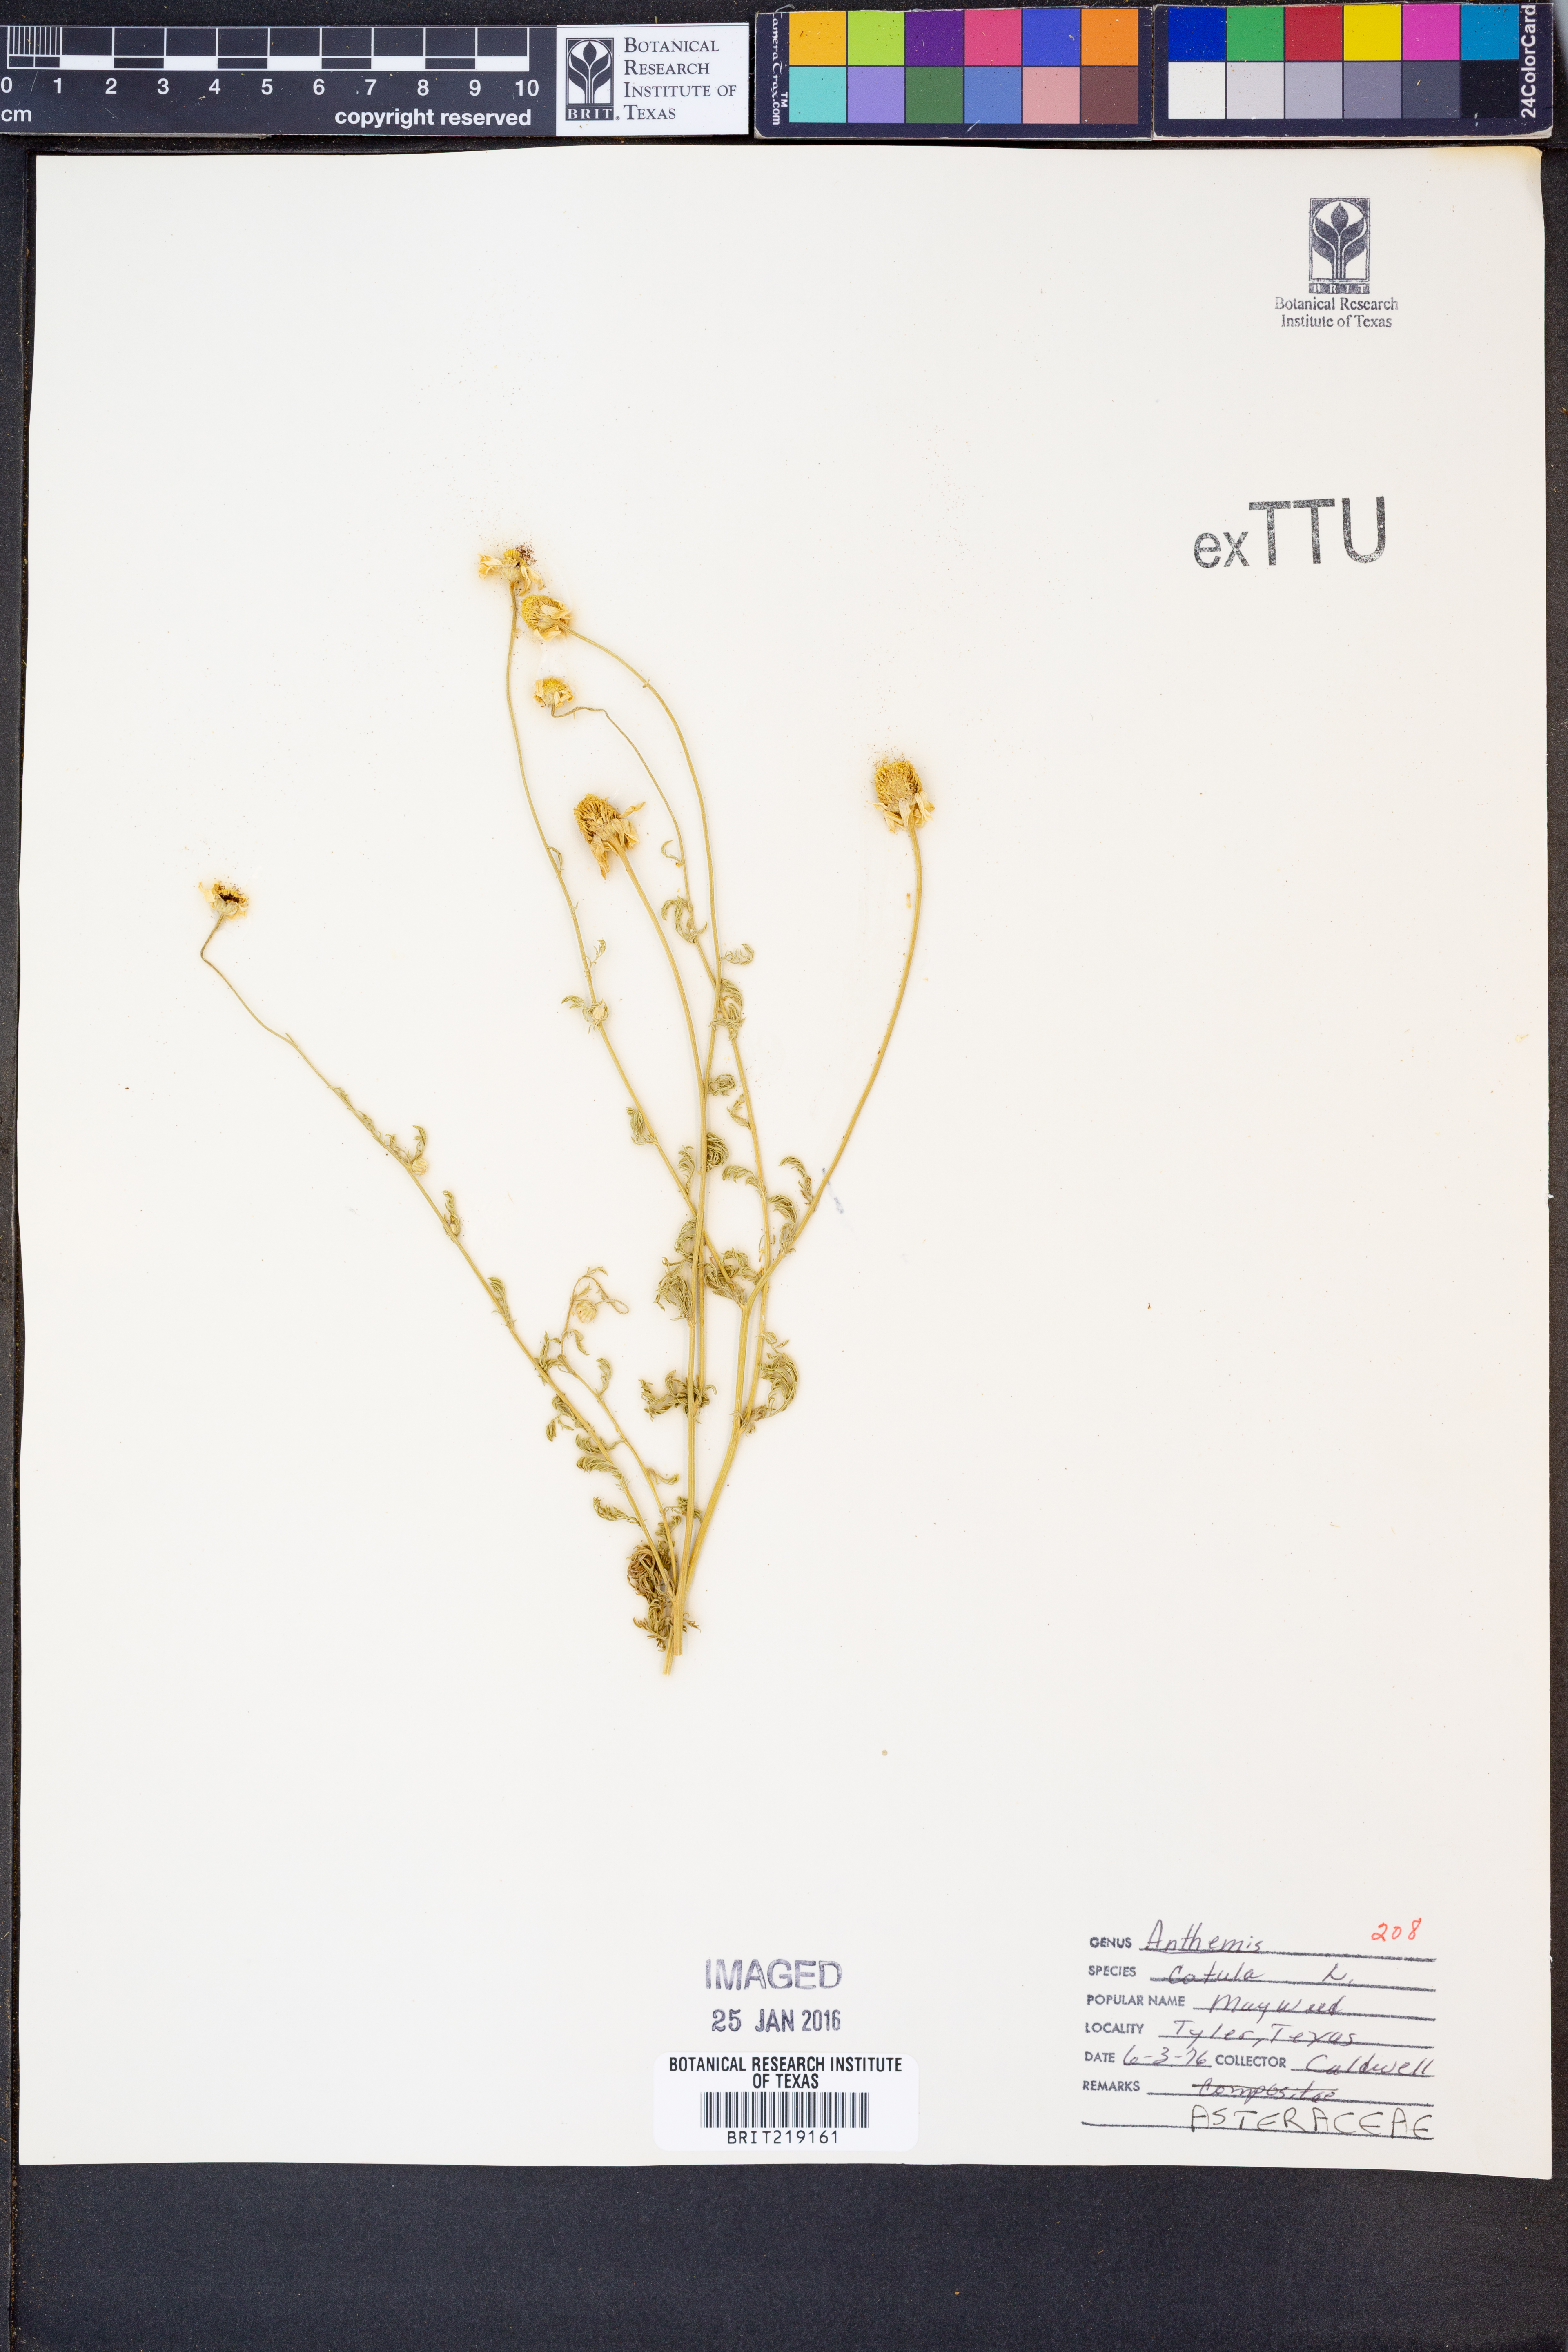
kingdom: Plantae
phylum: Tracheophyta
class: Magnoliopsida
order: Asterales
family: Asteraceae
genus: Anthemis
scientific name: Anthemis cotula
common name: Stinking chamomile
